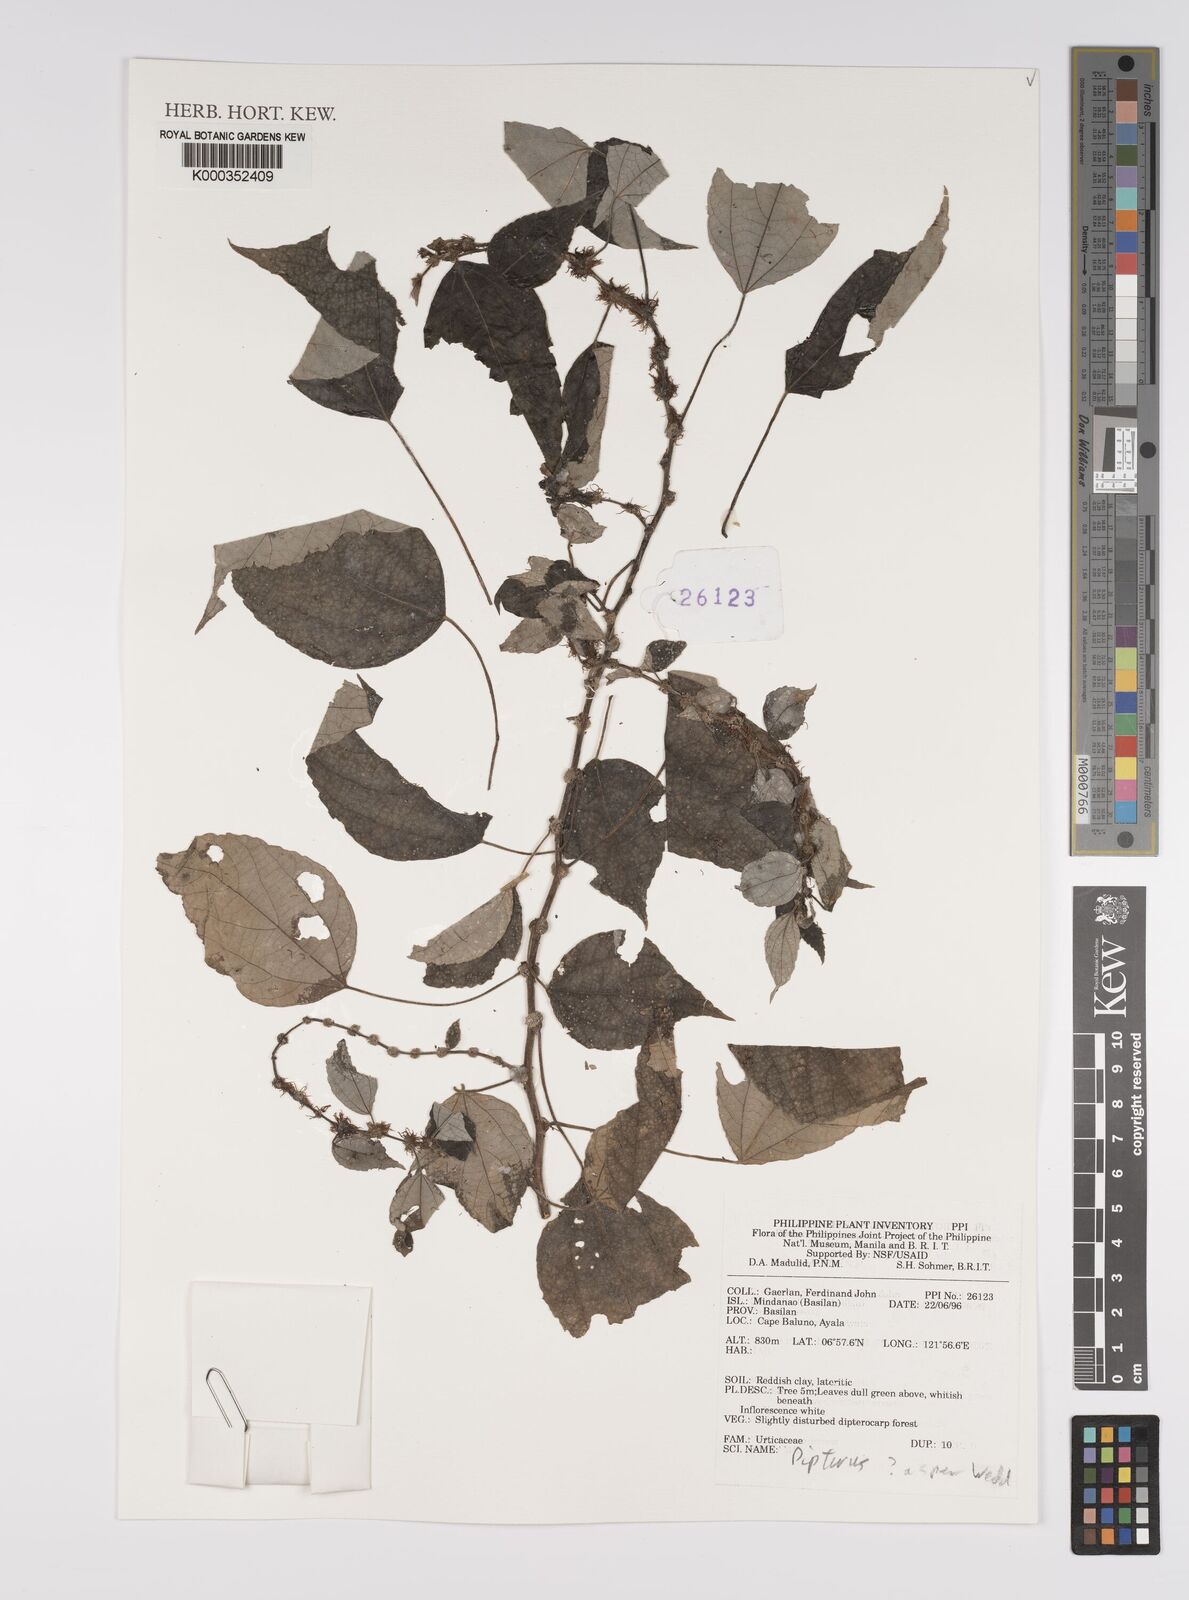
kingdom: Plantae
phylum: Tracheophyta
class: Magnoliopsida
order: Rosales
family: Urticaceae
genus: Pipturus
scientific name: Pipturus arborescens
